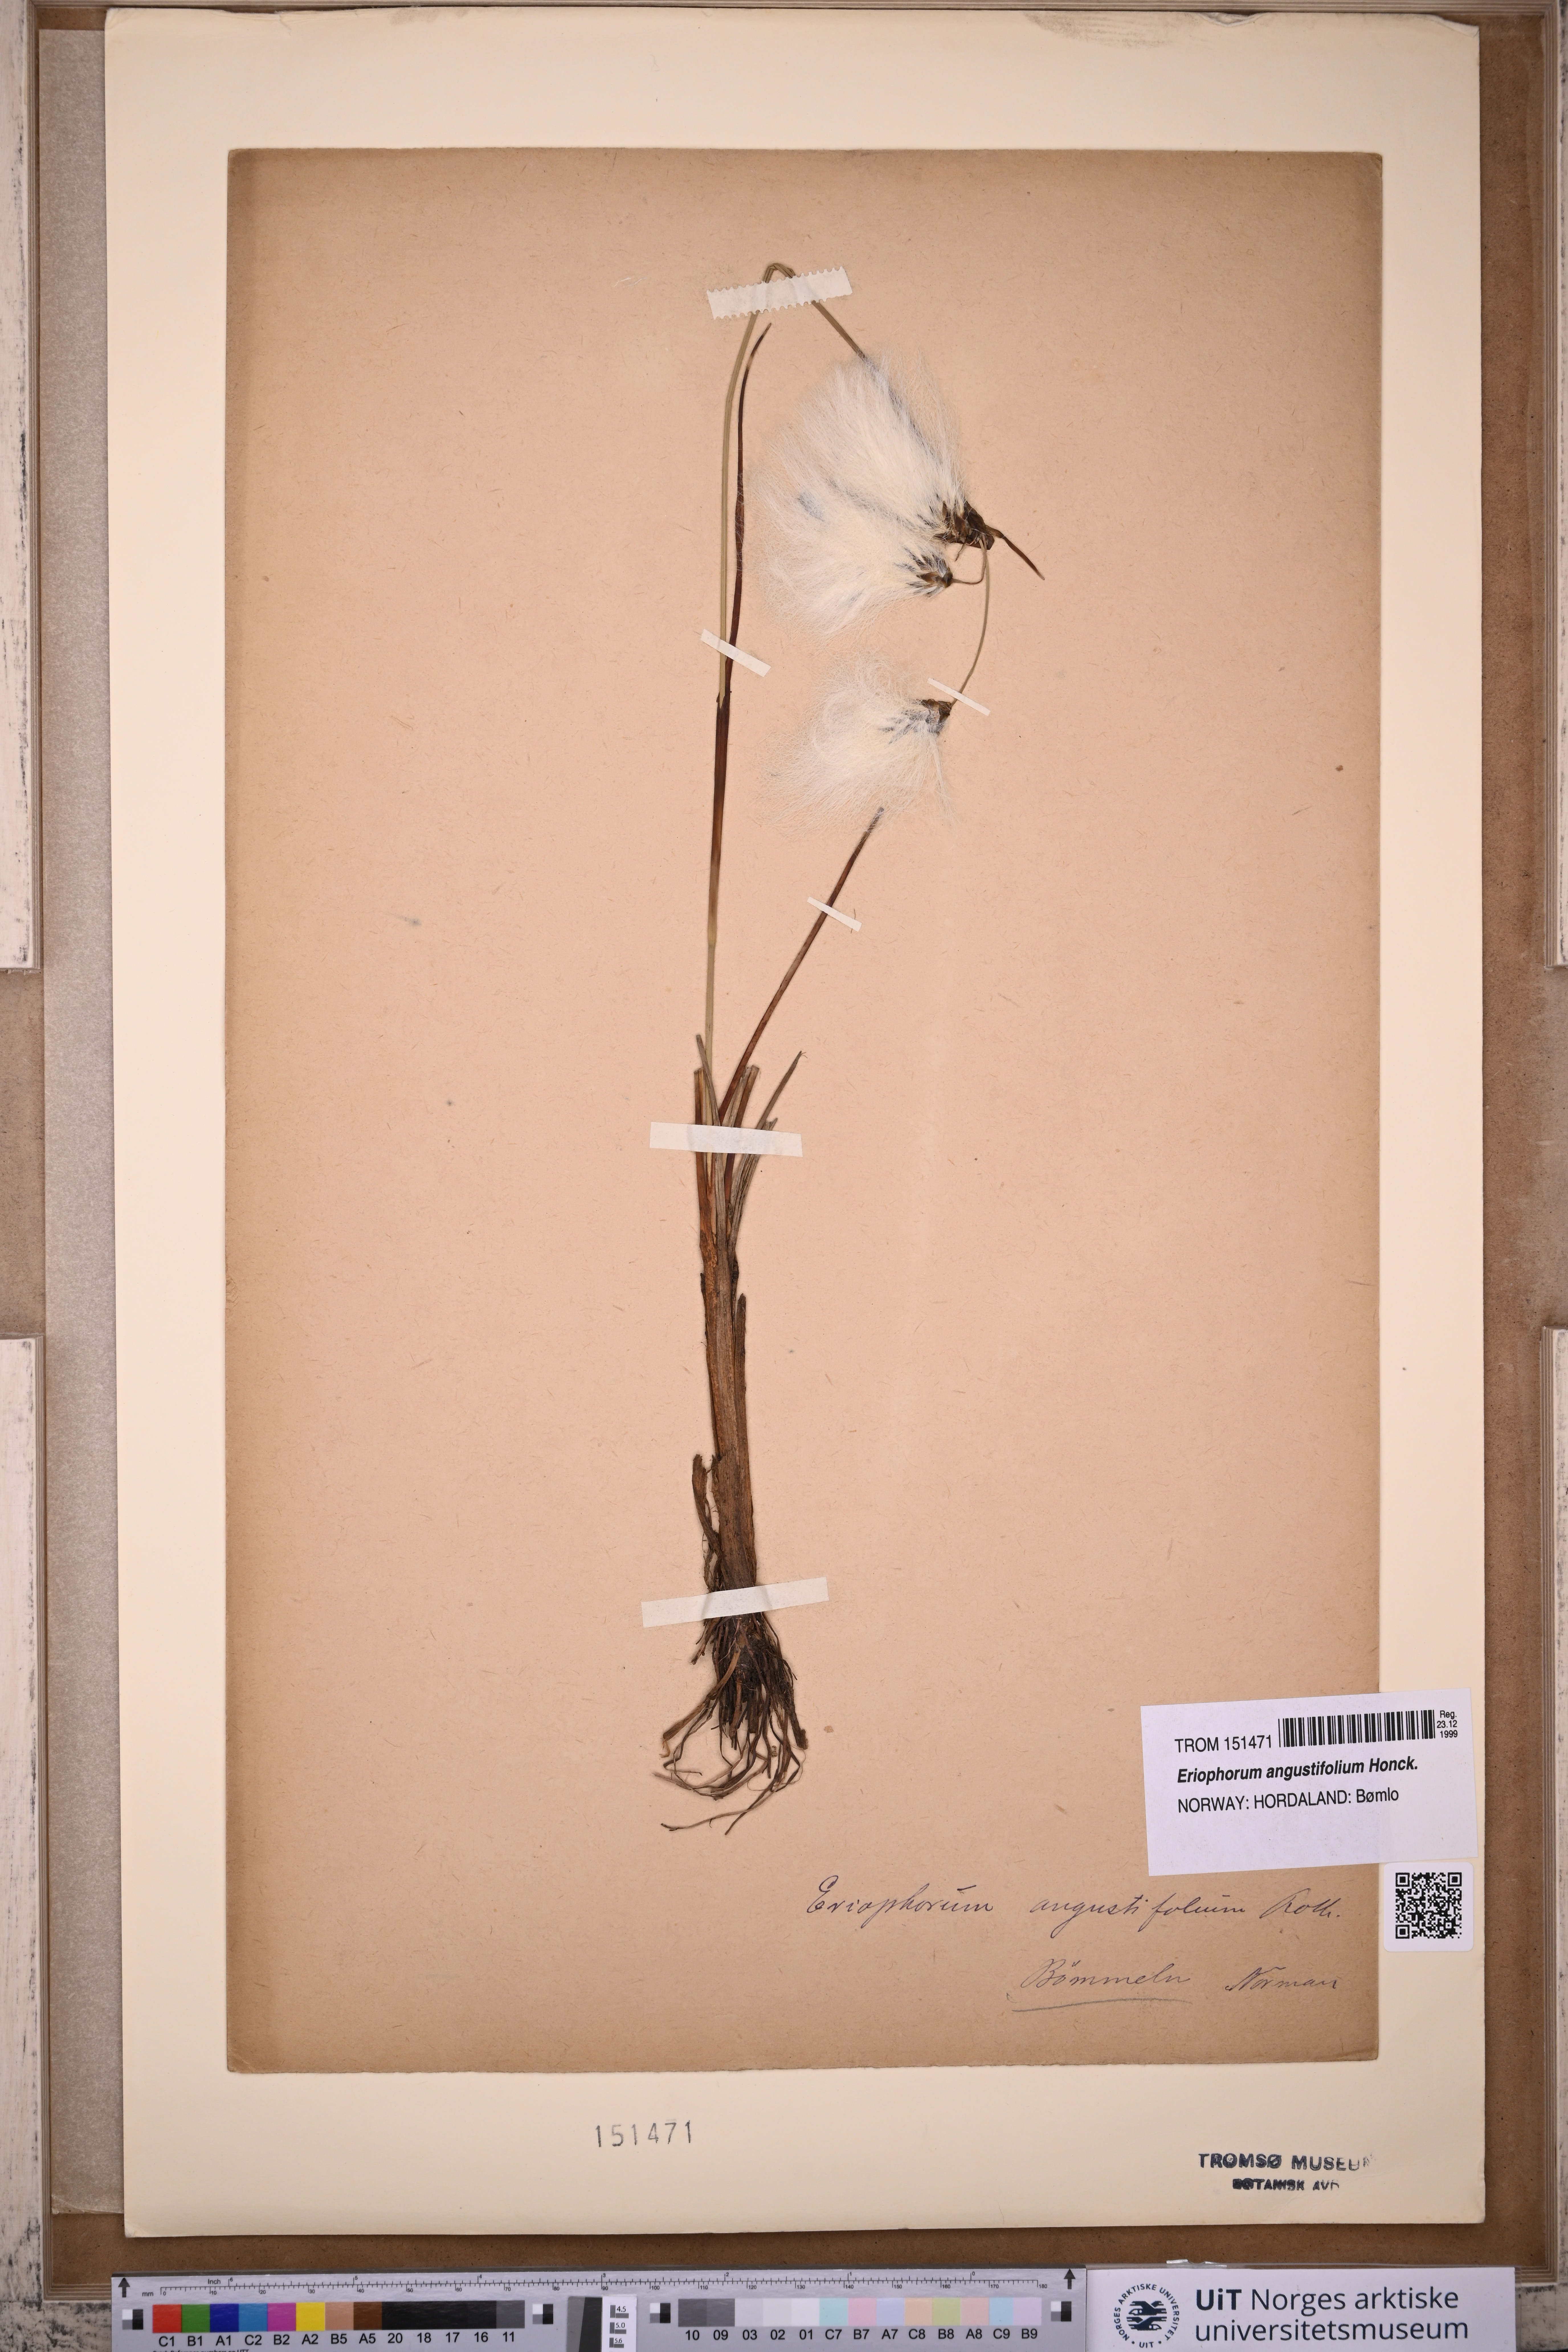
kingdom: Plantae
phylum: Tracheophyta
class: Liliopsida
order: Poales
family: Cyperaceae
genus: Eriophorum
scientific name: Eriophorum angustifolium
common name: Common cottongrass
